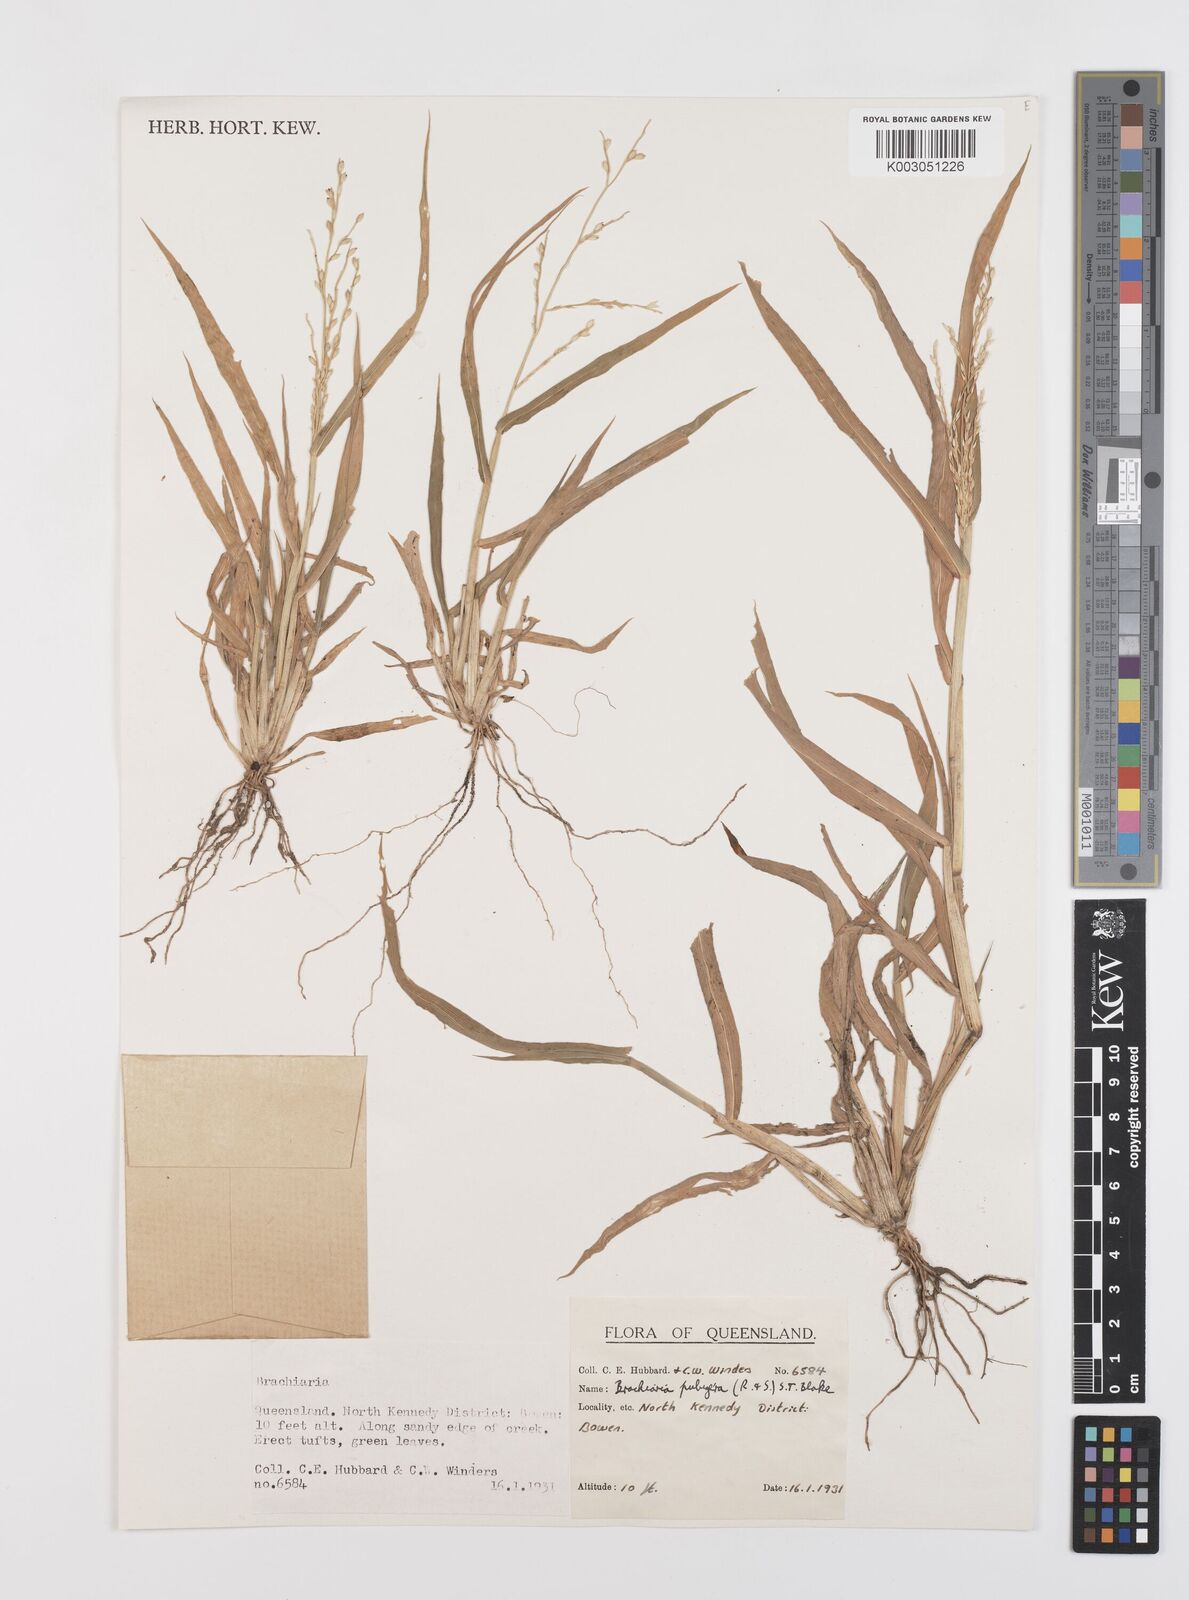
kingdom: Plantae
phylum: Tracheophyta
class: Liliopsida
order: Poales
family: Poaceae
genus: Urochloa
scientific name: Urochloa praetervisa
